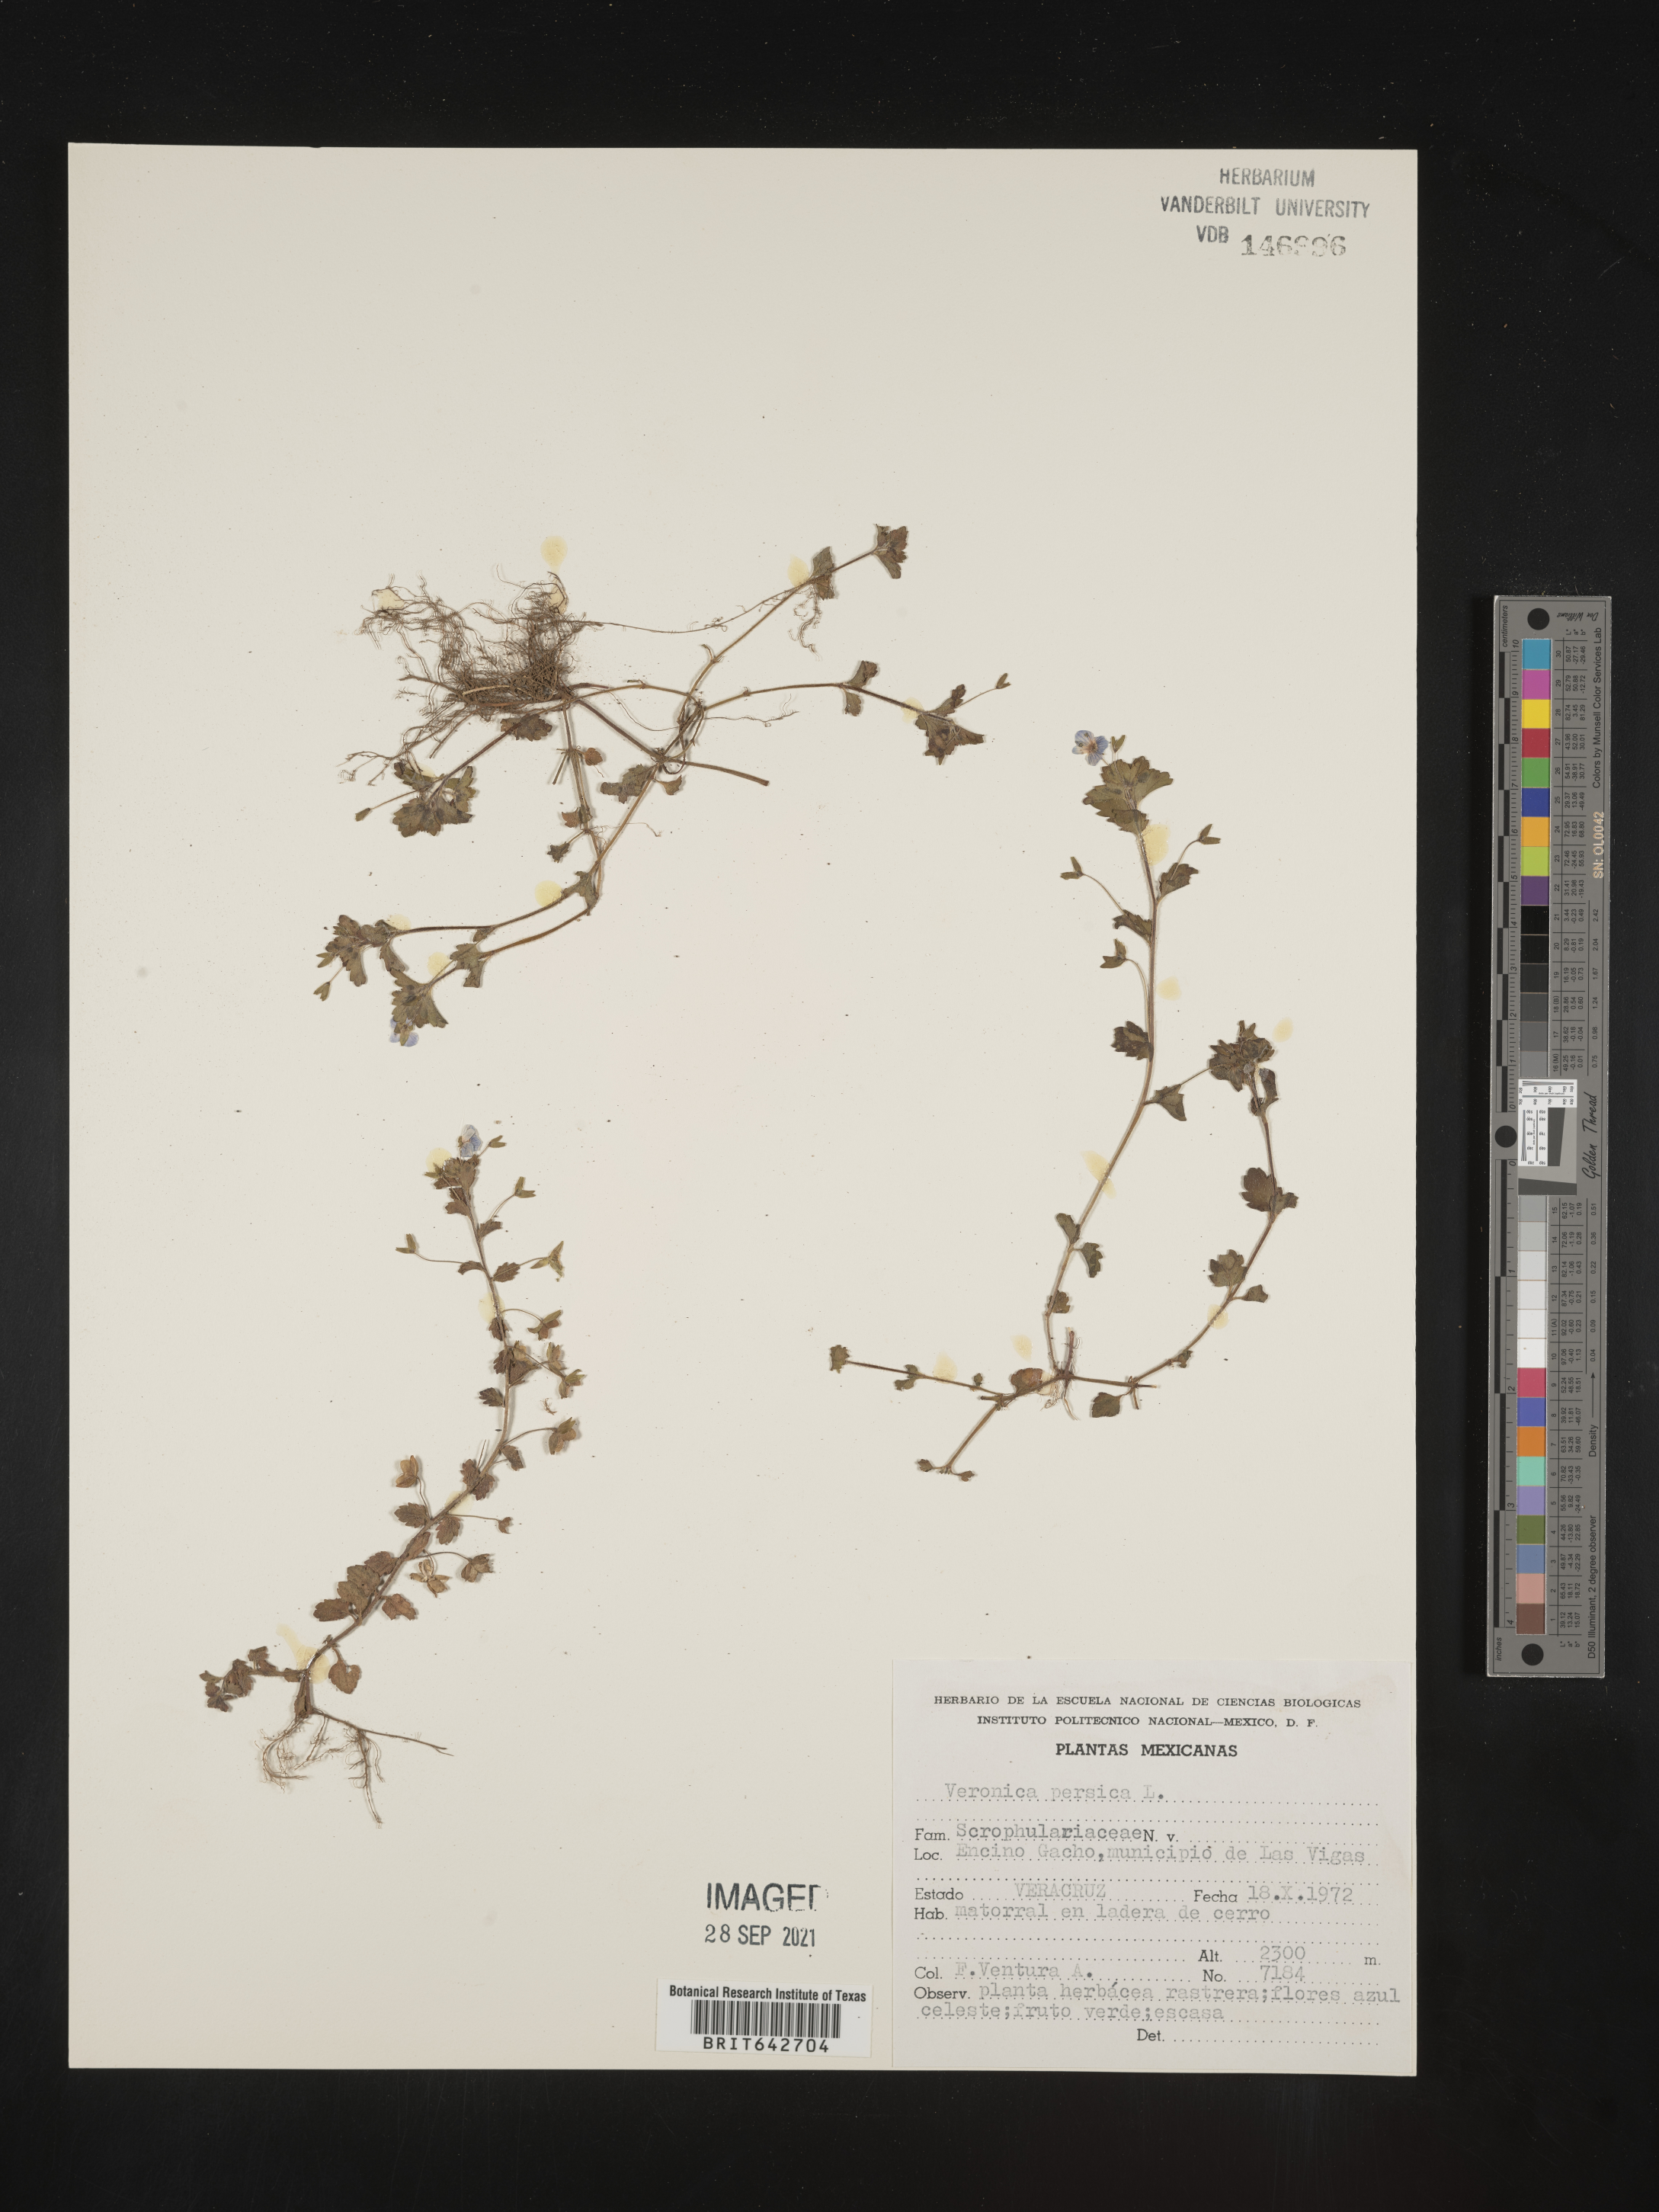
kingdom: Plantae
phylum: Tracheophyta
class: Magnoliopsida
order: Lamiales
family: Plantaginaceae
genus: Veronica
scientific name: Veronica
